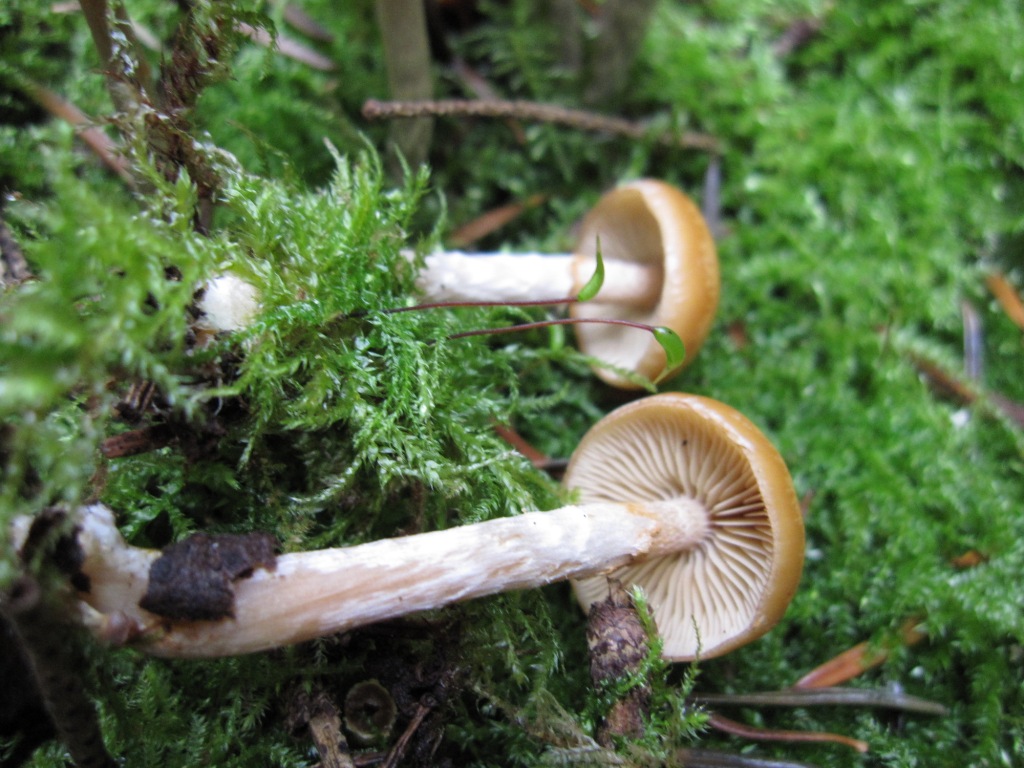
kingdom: Fungi
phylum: Basidiomycota
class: Agaricomycetes
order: Agaricales
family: Hymenogastraceae
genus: Galerina
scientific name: Galerina sideroides
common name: træflis-hjelmhat
